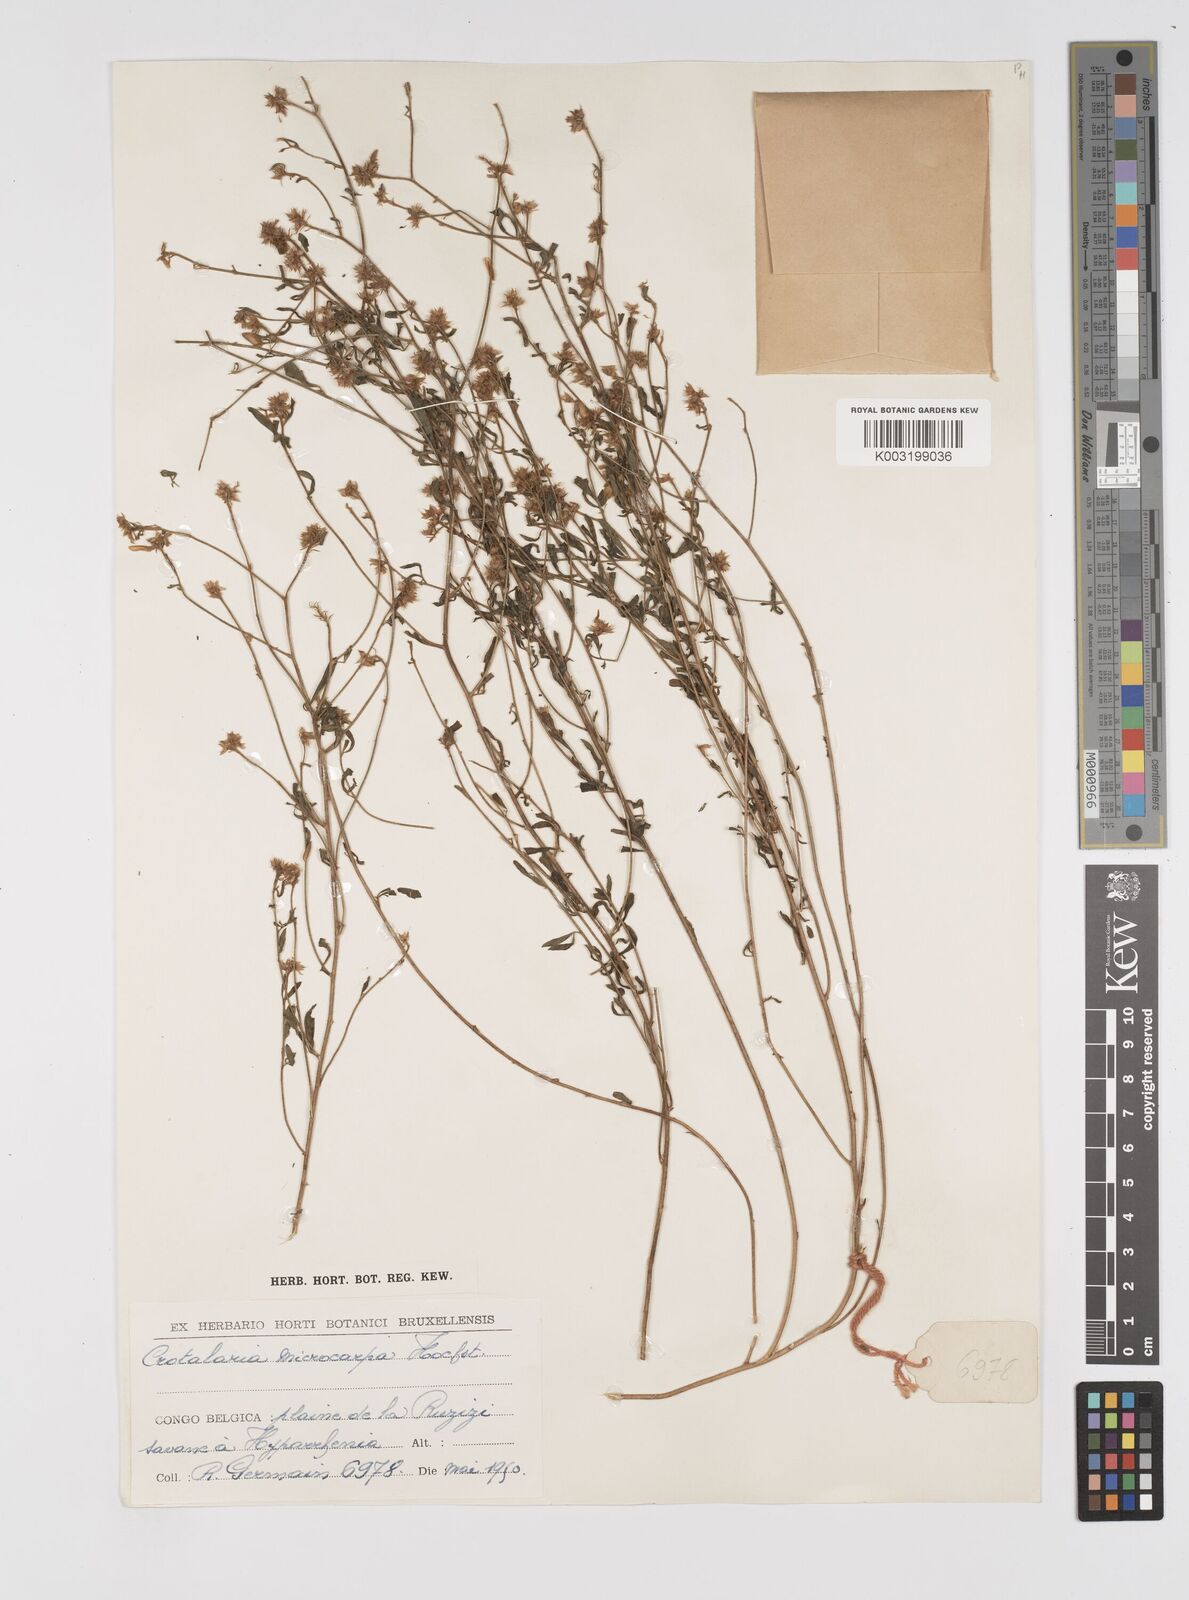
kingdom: Plantae
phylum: Tracheophyta
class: Magnoliopsida
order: Fabales
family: Fabaceae
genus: Crotalaria
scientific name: Crotalaria microcarpa
